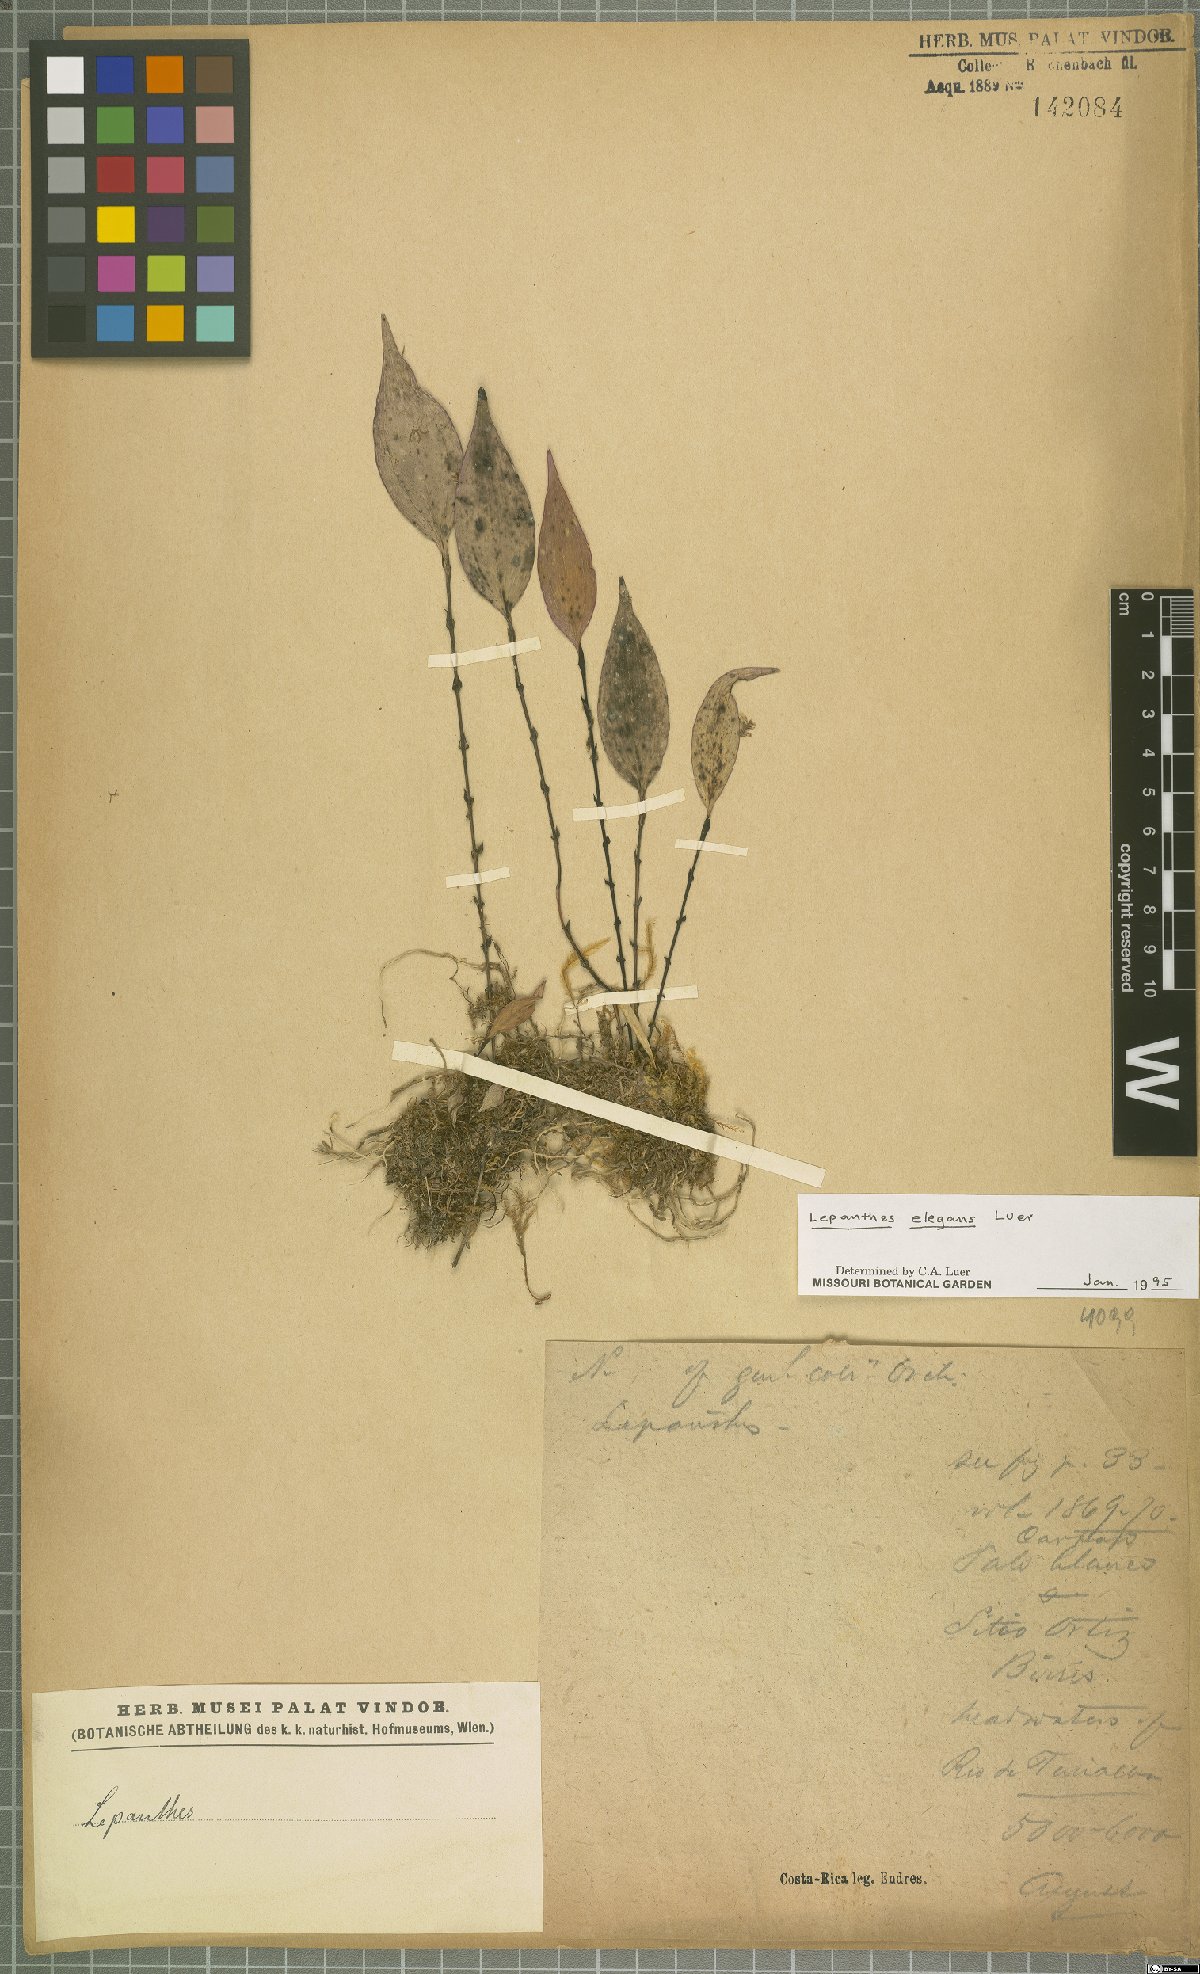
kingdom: Plantae
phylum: Tracheophyta
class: Liliopsida
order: Asparagales
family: Orchidaceae
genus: Lepanthes
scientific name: Lepanthes elegans
